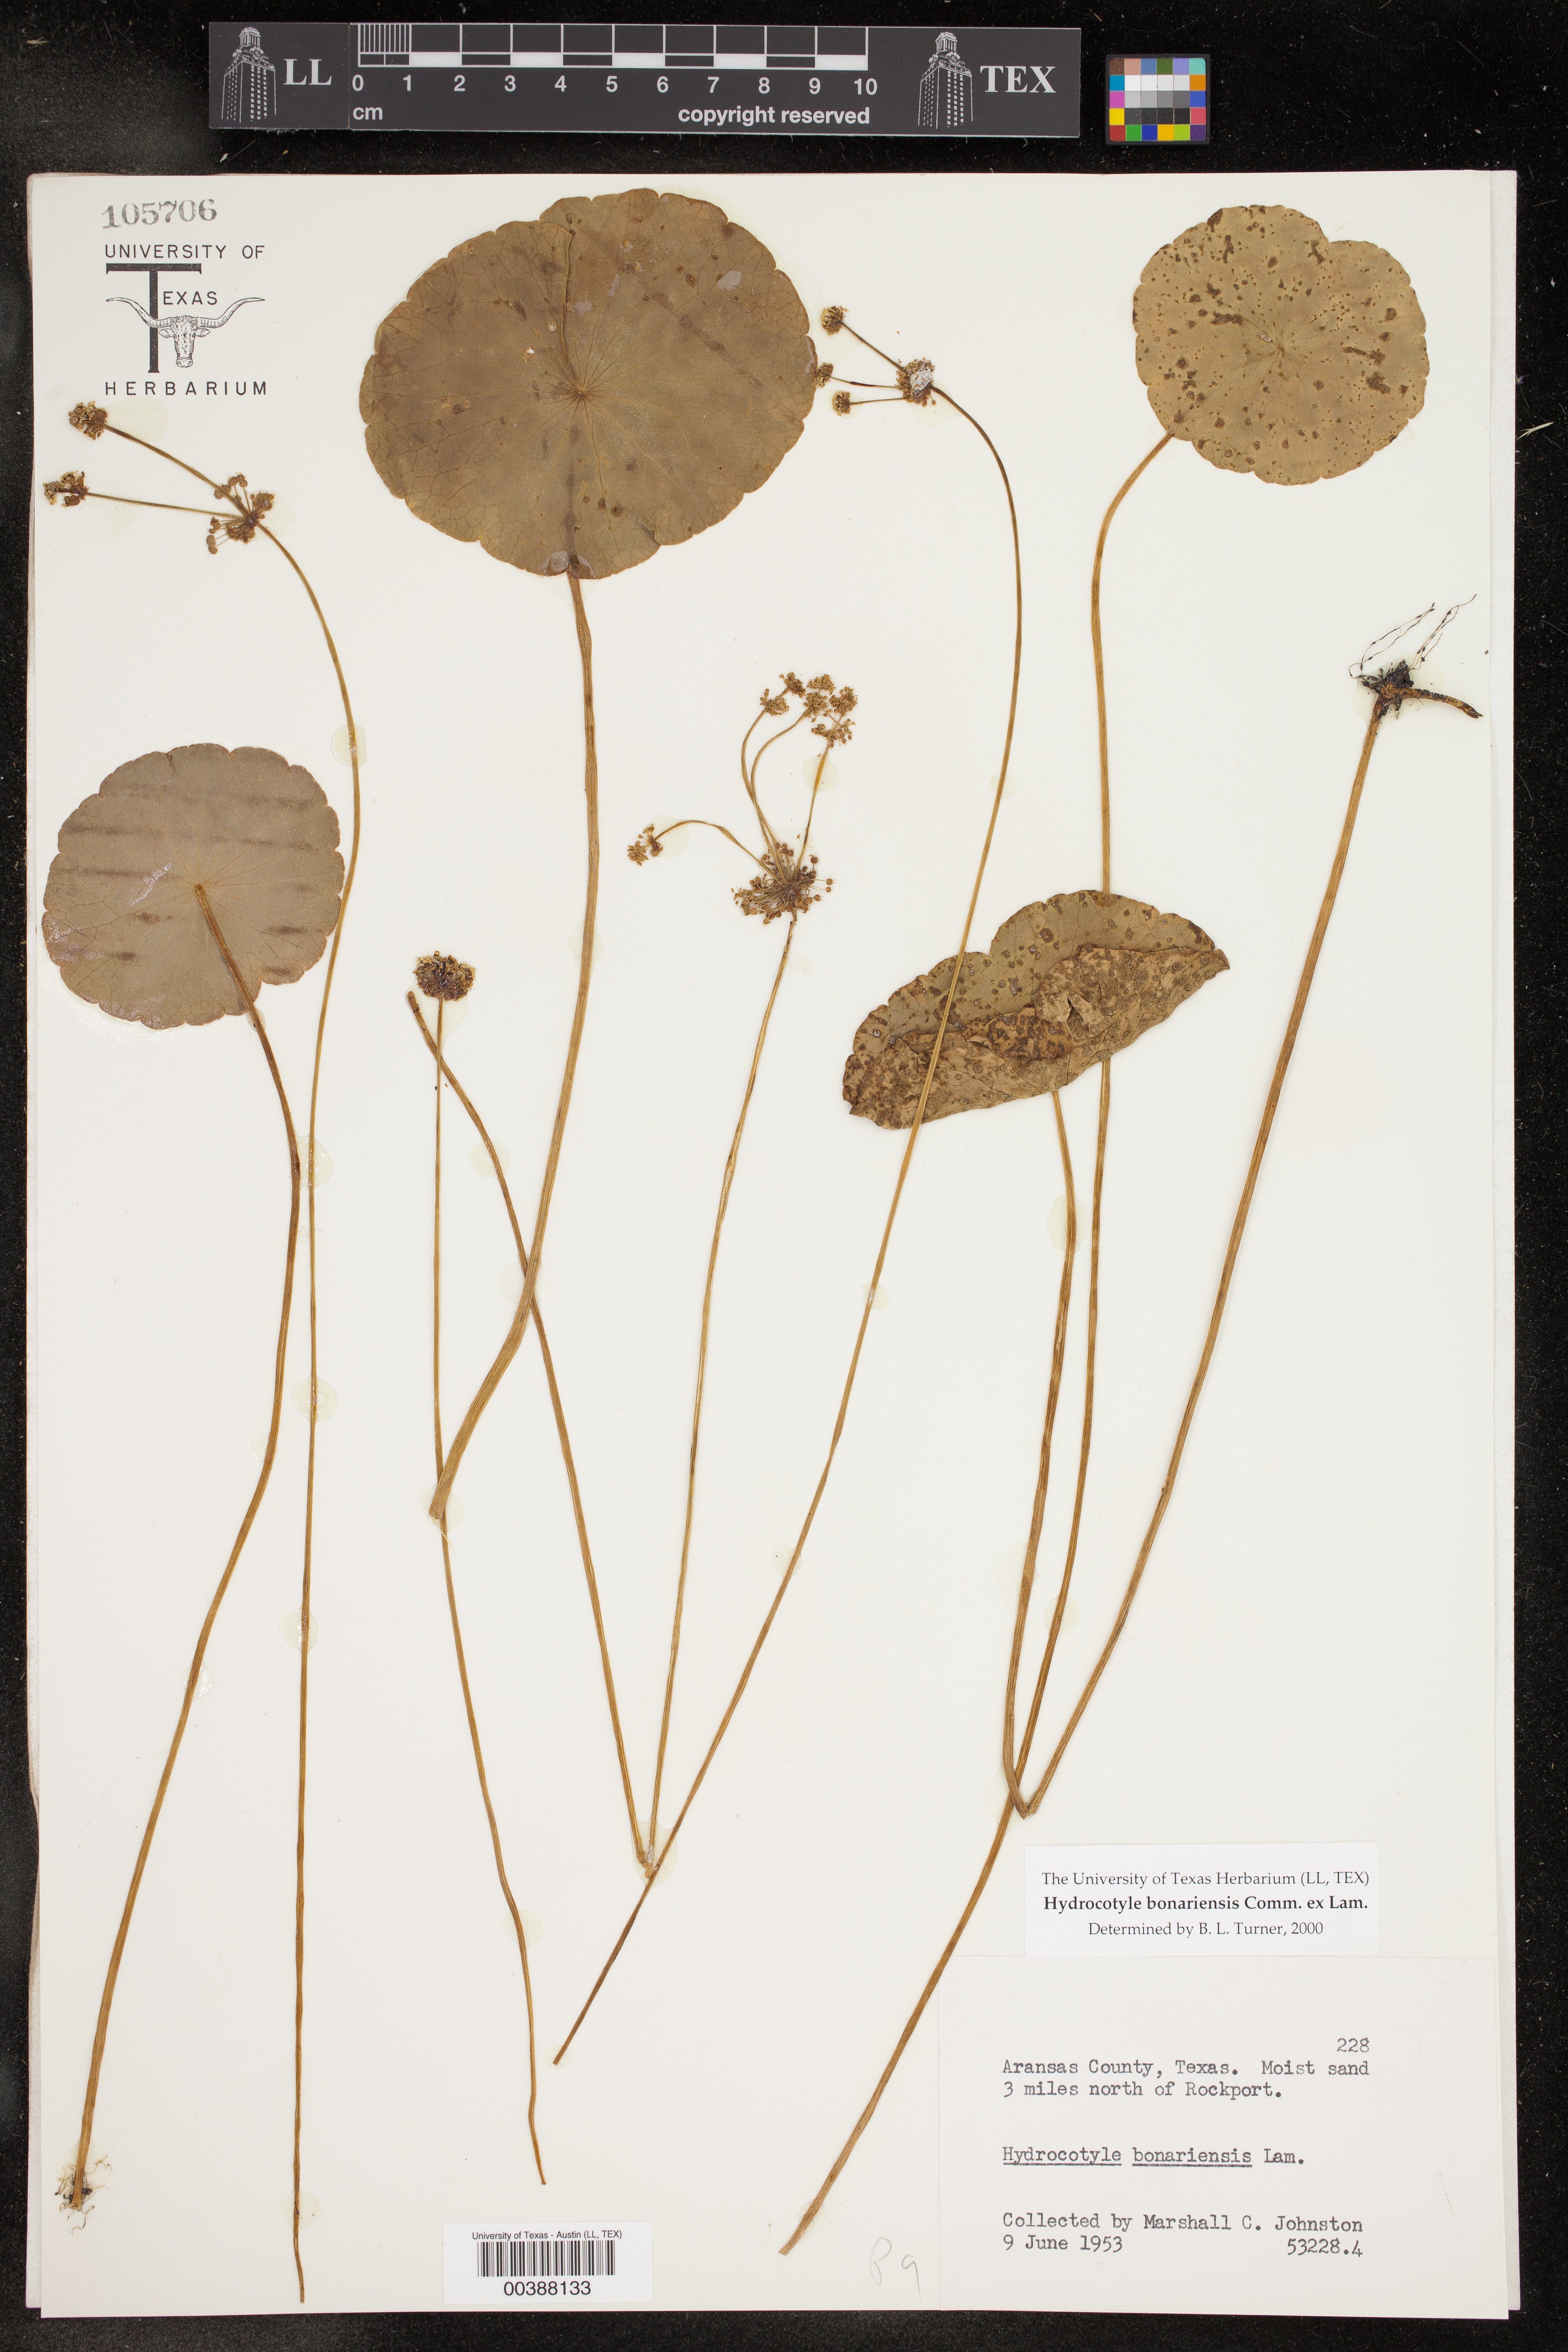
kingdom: Plantae
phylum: Tracheophyta
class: Magnoliopsida
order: Apiales
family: Araliaceae
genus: Hydrocotyle
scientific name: Hydrocotyle bonariensis
